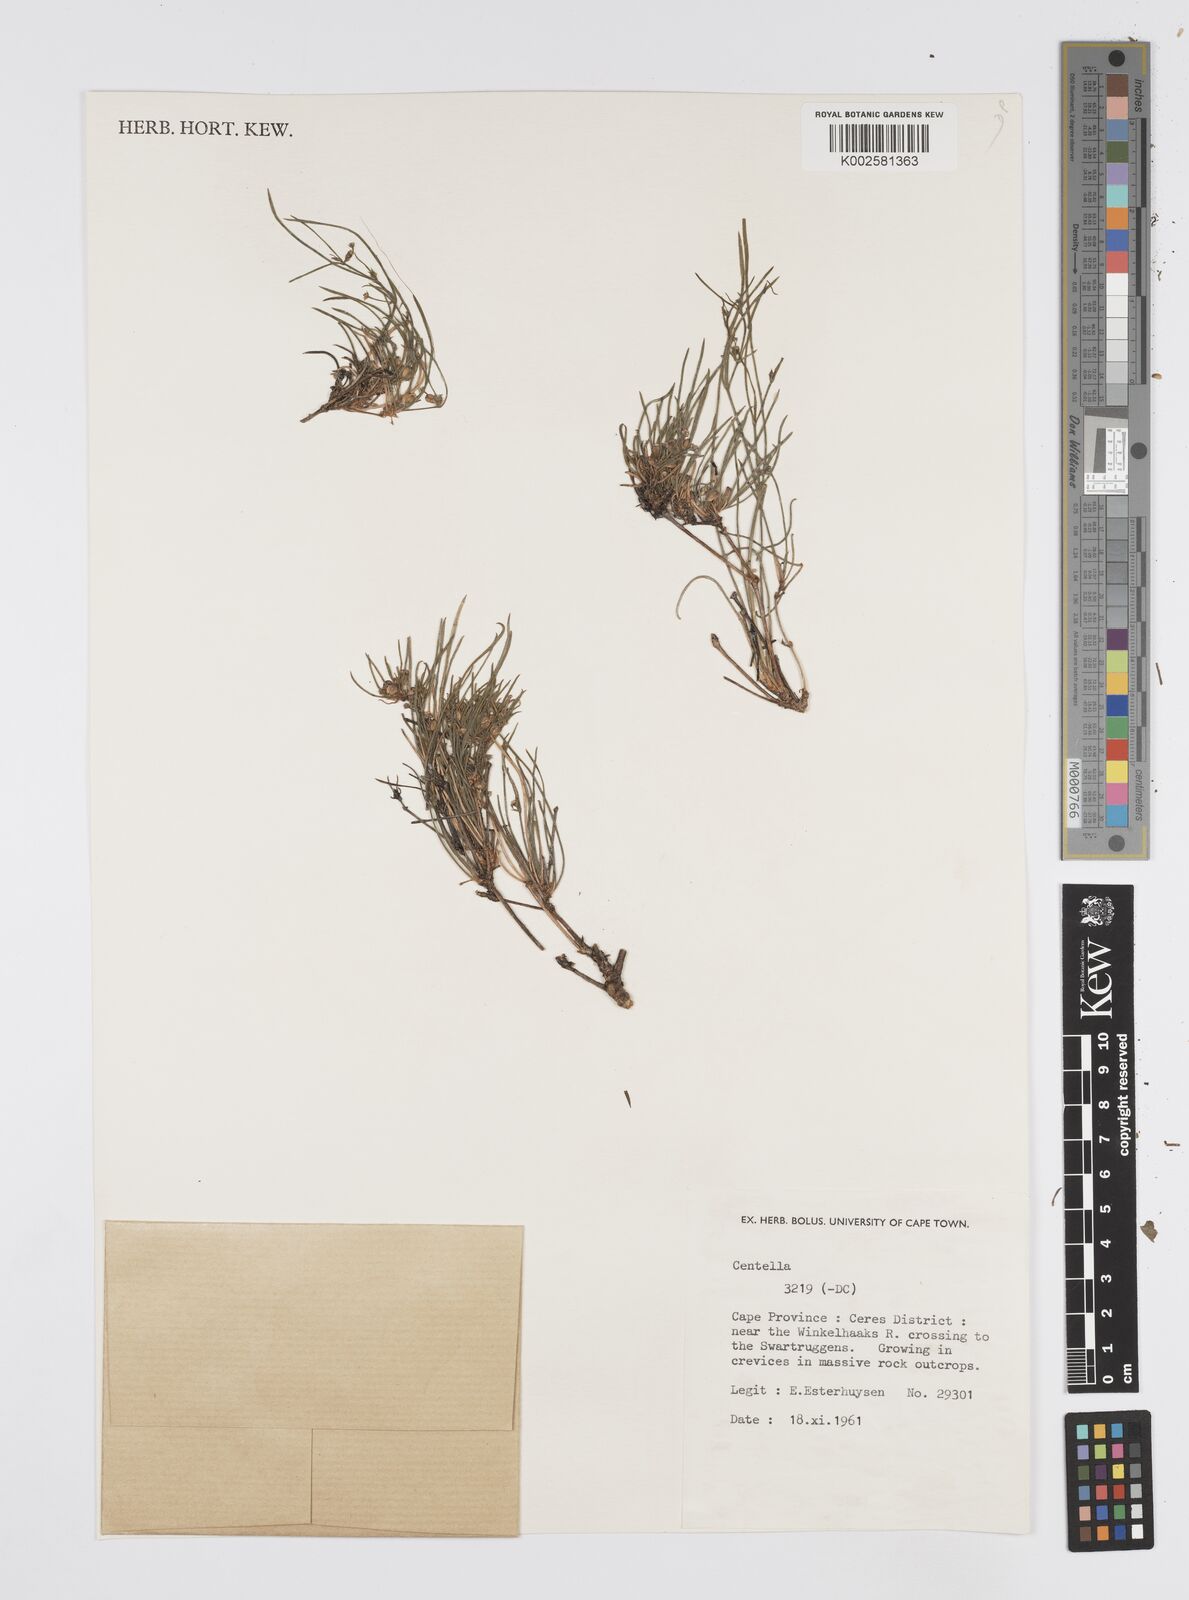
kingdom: Plantae
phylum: Tracheophyta
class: Magnoliopsida
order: Apiales
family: Apiaceae
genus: Centella
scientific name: Centella
